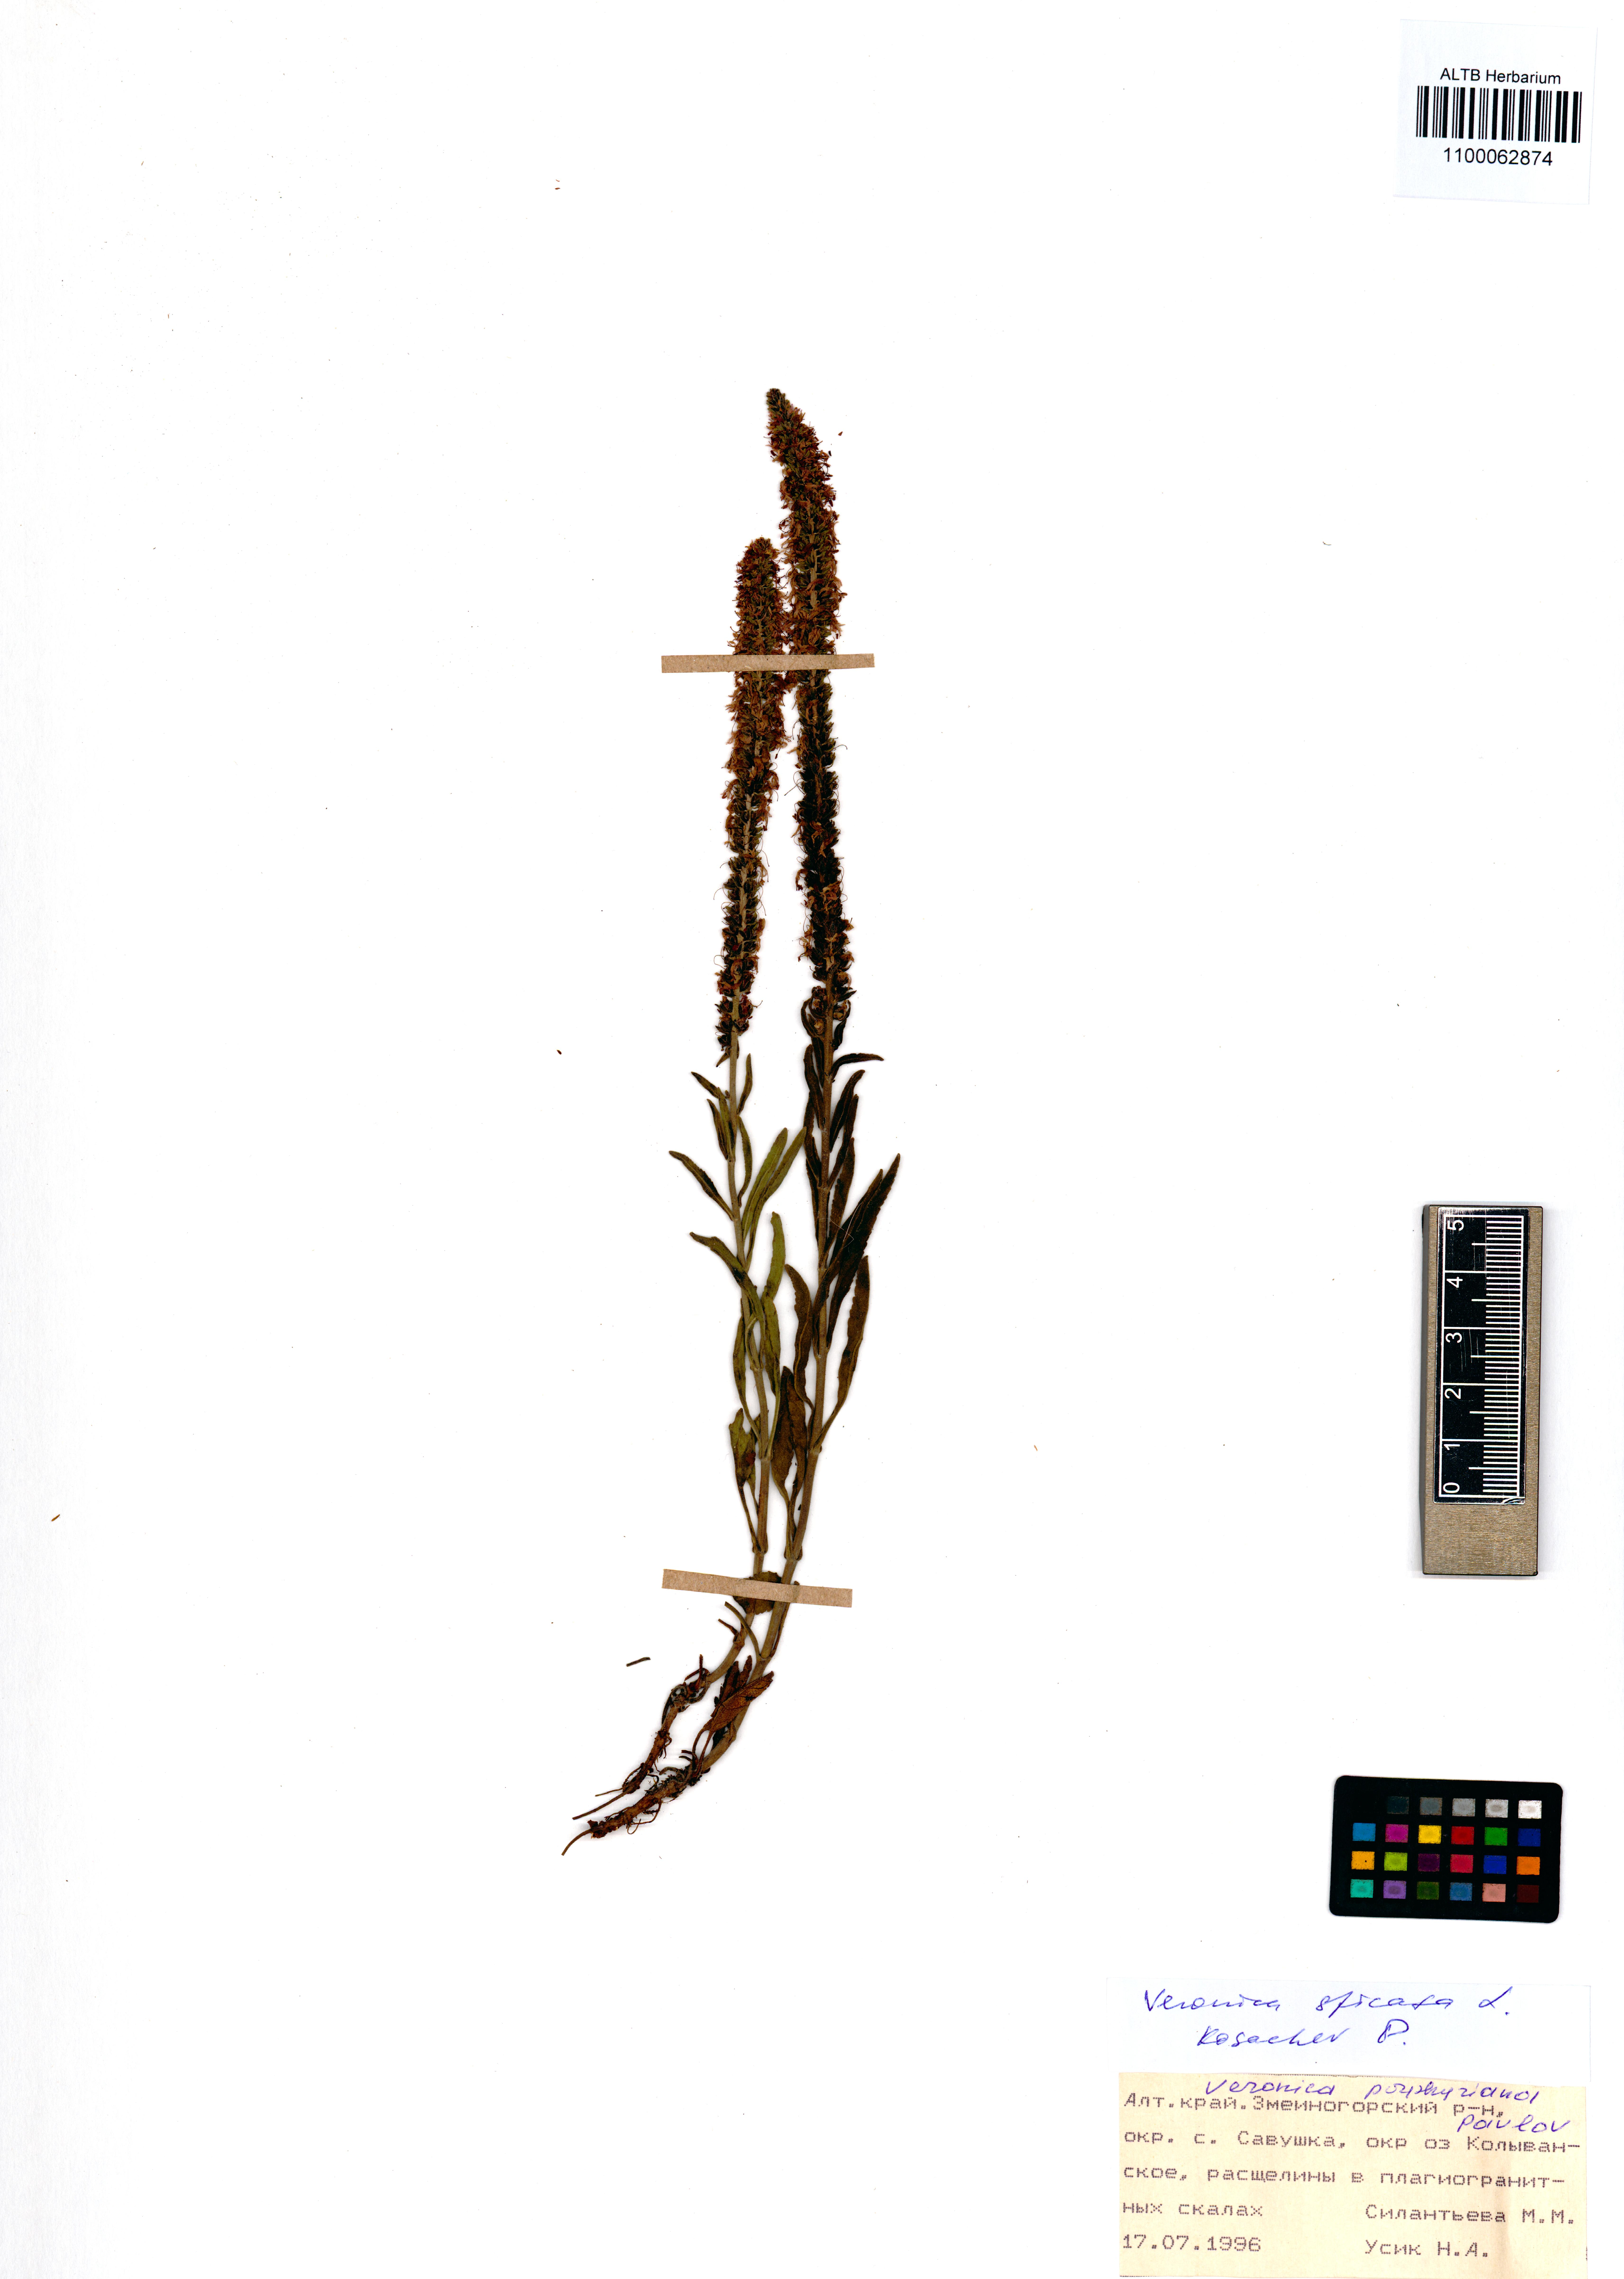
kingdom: Plantae
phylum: Tracheophyta
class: Magnoliopsida
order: Lamiales
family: Plantaginaceae
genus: Veronica
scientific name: Veronica spicata
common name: Spiked speedwell
